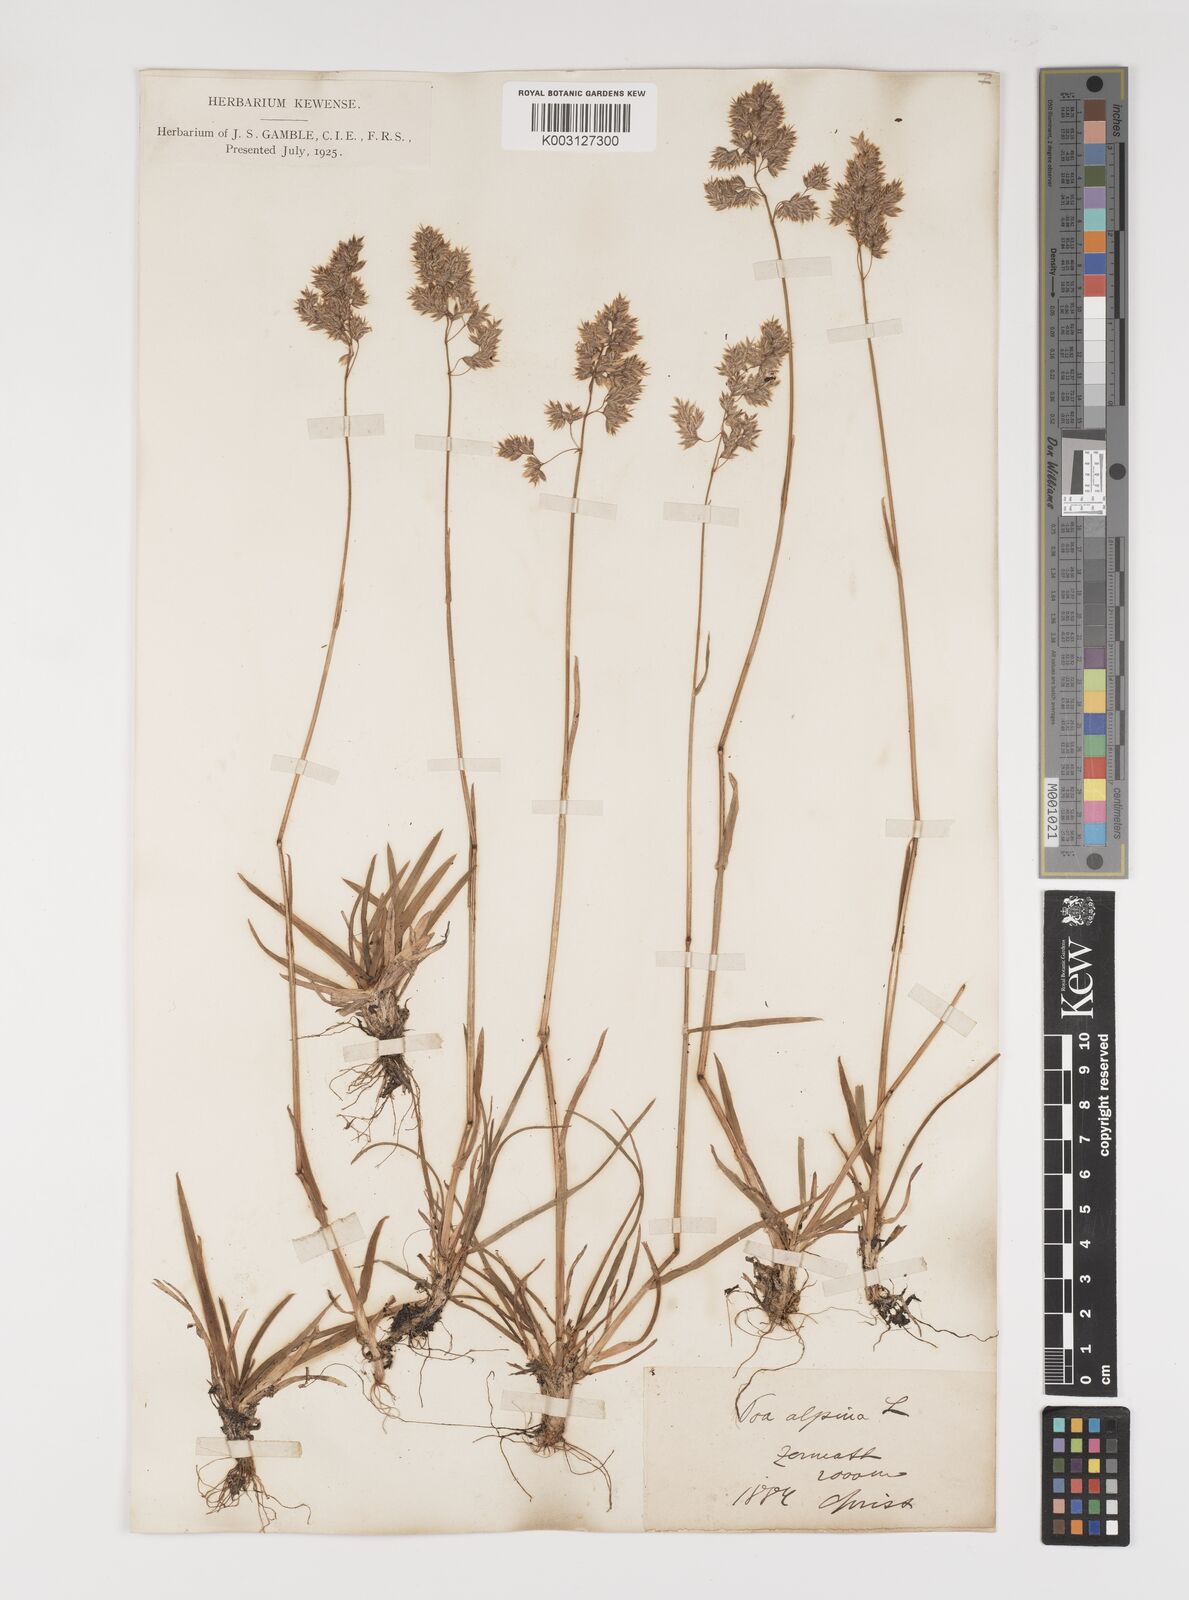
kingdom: Plantae
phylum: Tracheophyta
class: Liliopsida
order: Poales
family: Poaceae
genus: Poa
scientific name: Poa alpina
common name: Alpine bluegrass
